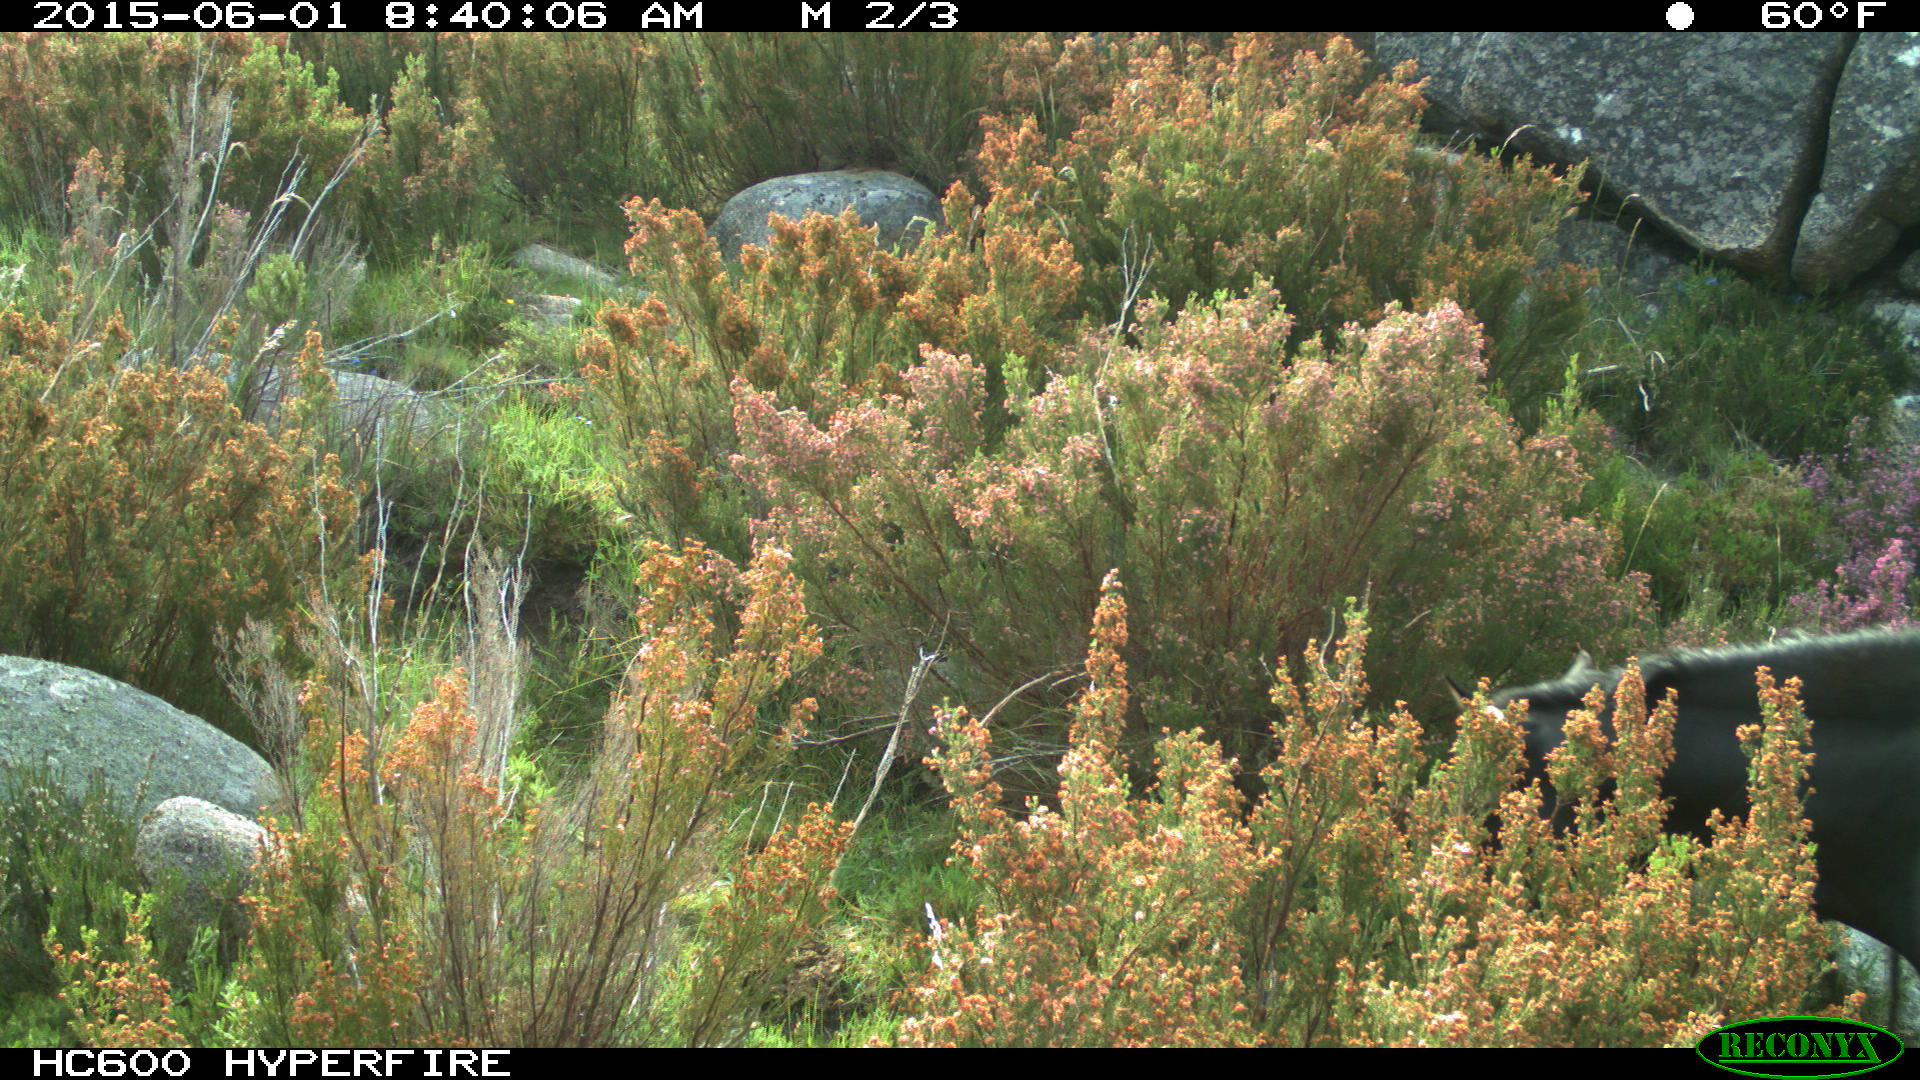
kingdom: Animalia
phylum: Chordata
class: Mammalia
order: Perissodactyla
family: Equidae
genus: Equus
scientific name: Equus caballus
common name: Horse
